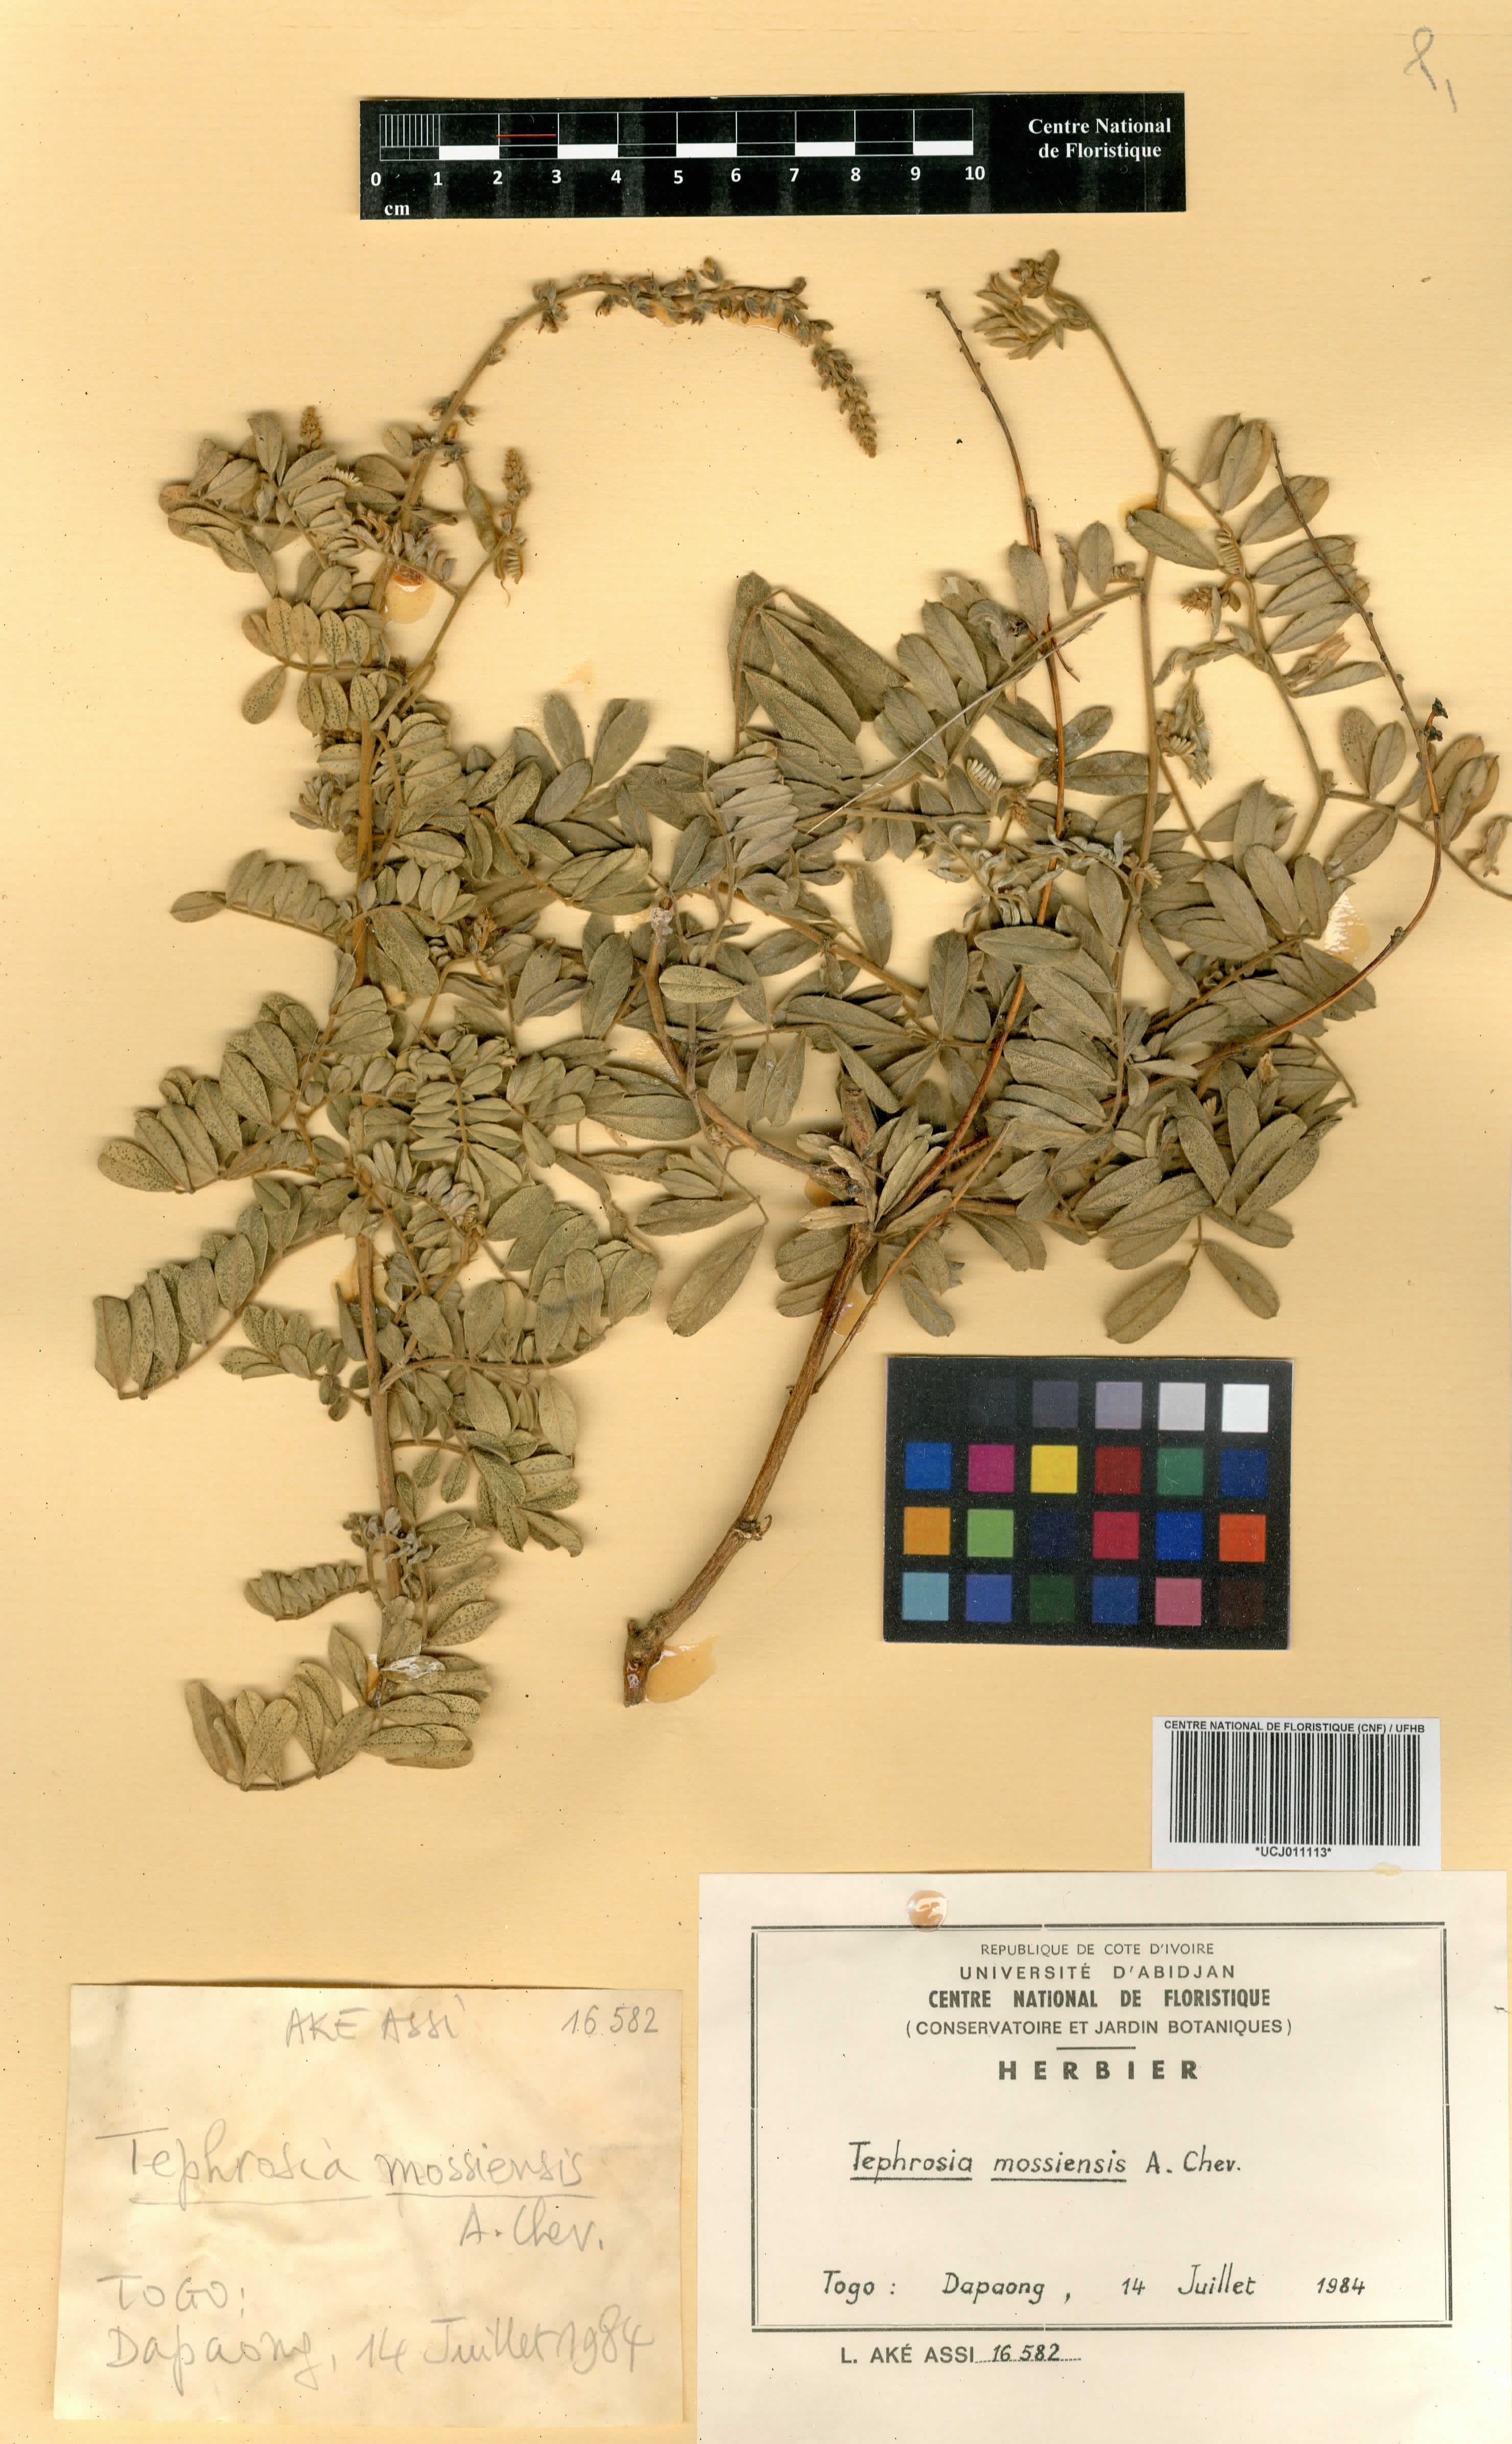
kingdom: Plantae
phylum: Tracheophyta
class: Magnoliopsida
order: Fabales
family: Fabaceae
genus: Tephrosia
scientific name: Tephrosia mossiensis
